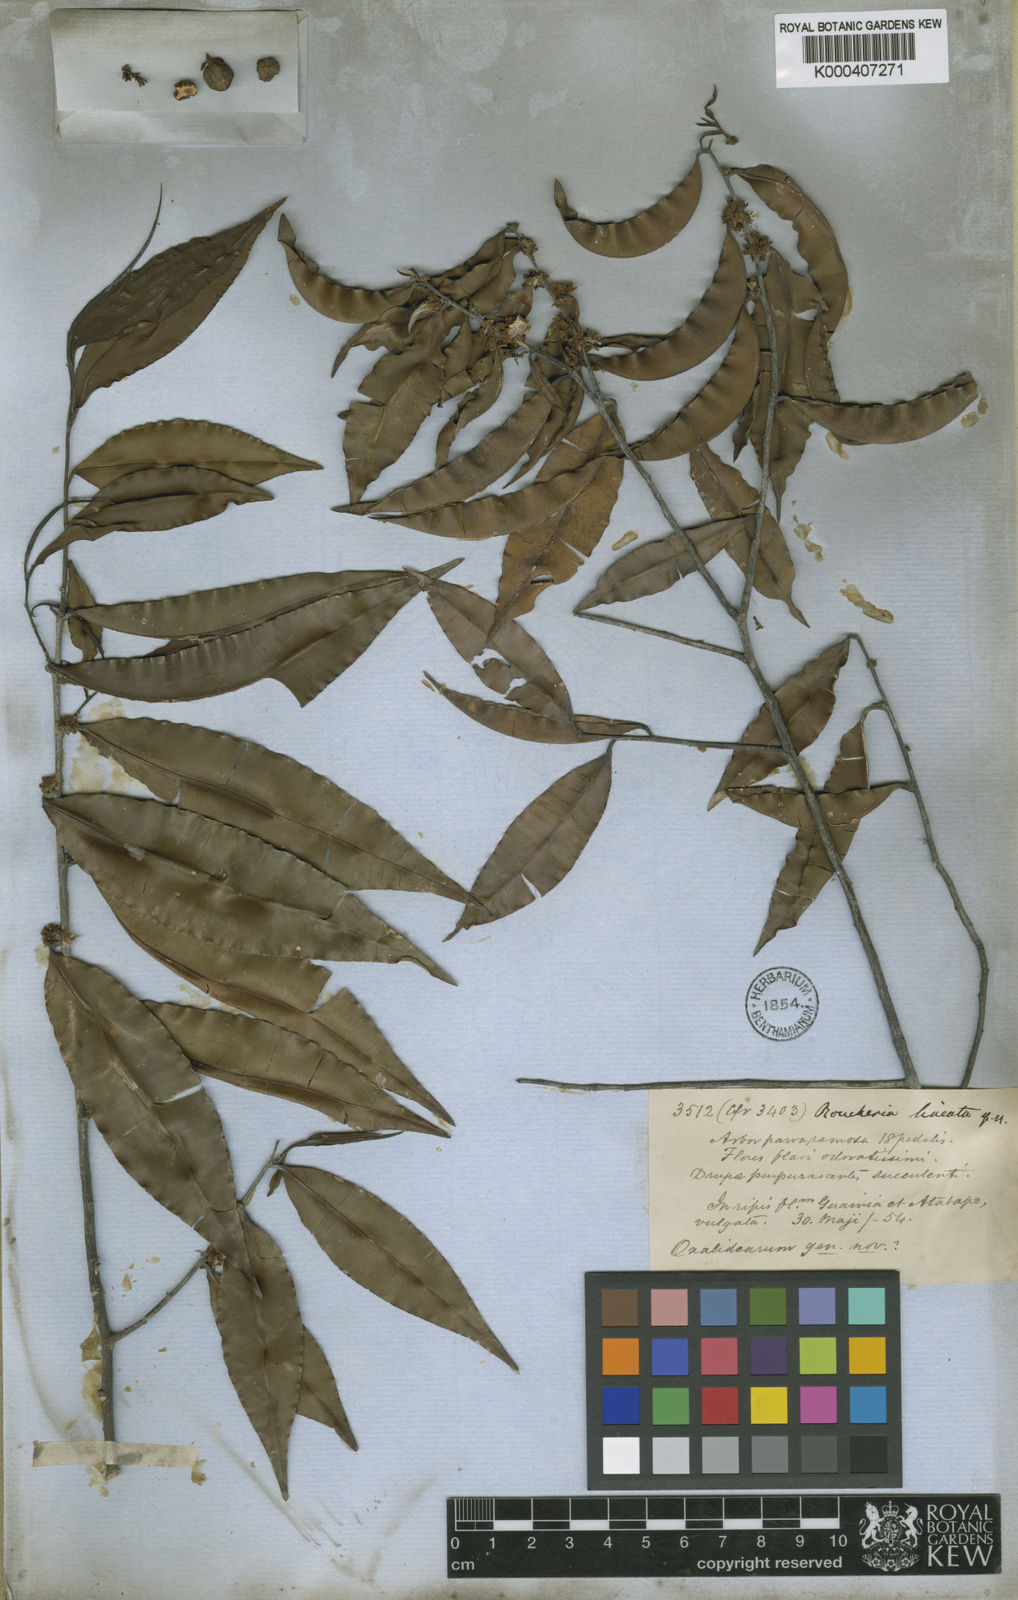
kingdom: Plantae
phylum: Tracheophyta
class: Magnoliopsida
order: Malpighiales
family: Linaceae
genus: Roucheria
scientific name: Roucheria
